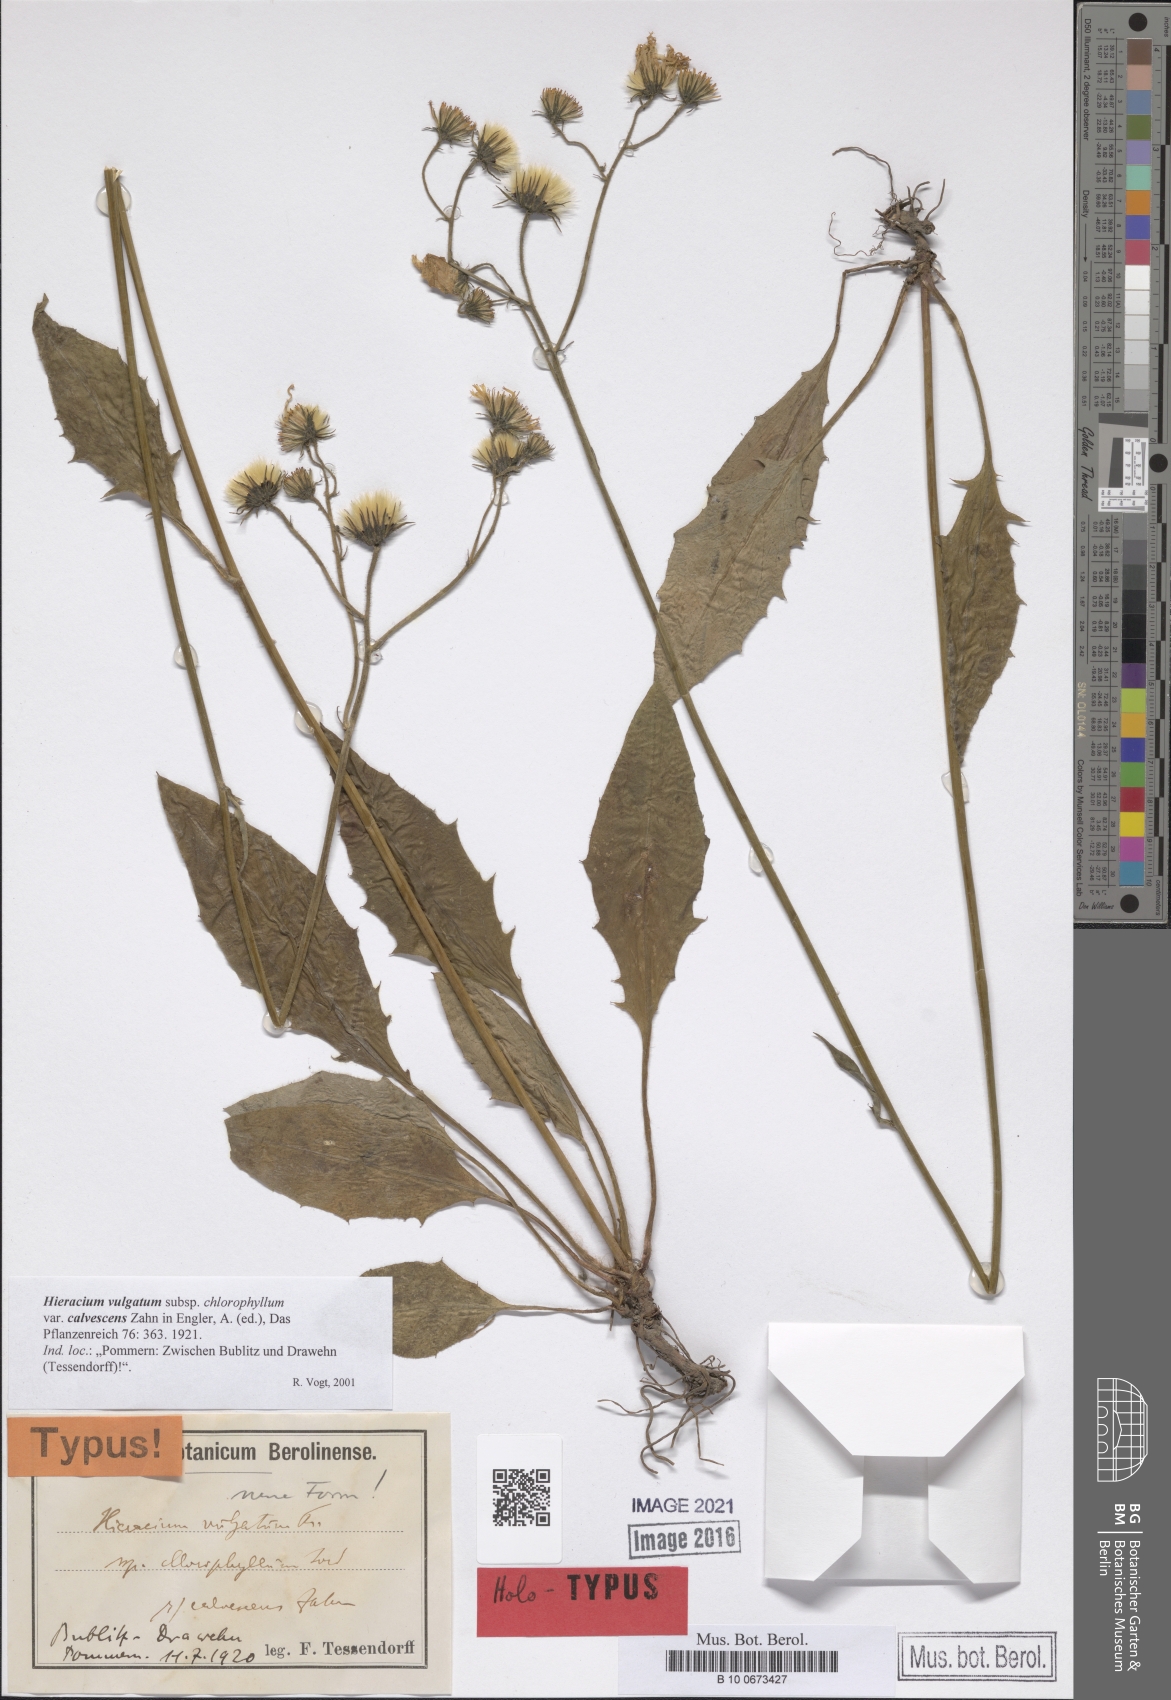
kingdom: Plantae
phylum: Tracheophyta
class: Magnoliopsida
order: Asterales
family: Asteraceae
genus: Hieracium
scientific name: Hieracium lachenalii
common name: Common hawkweed
